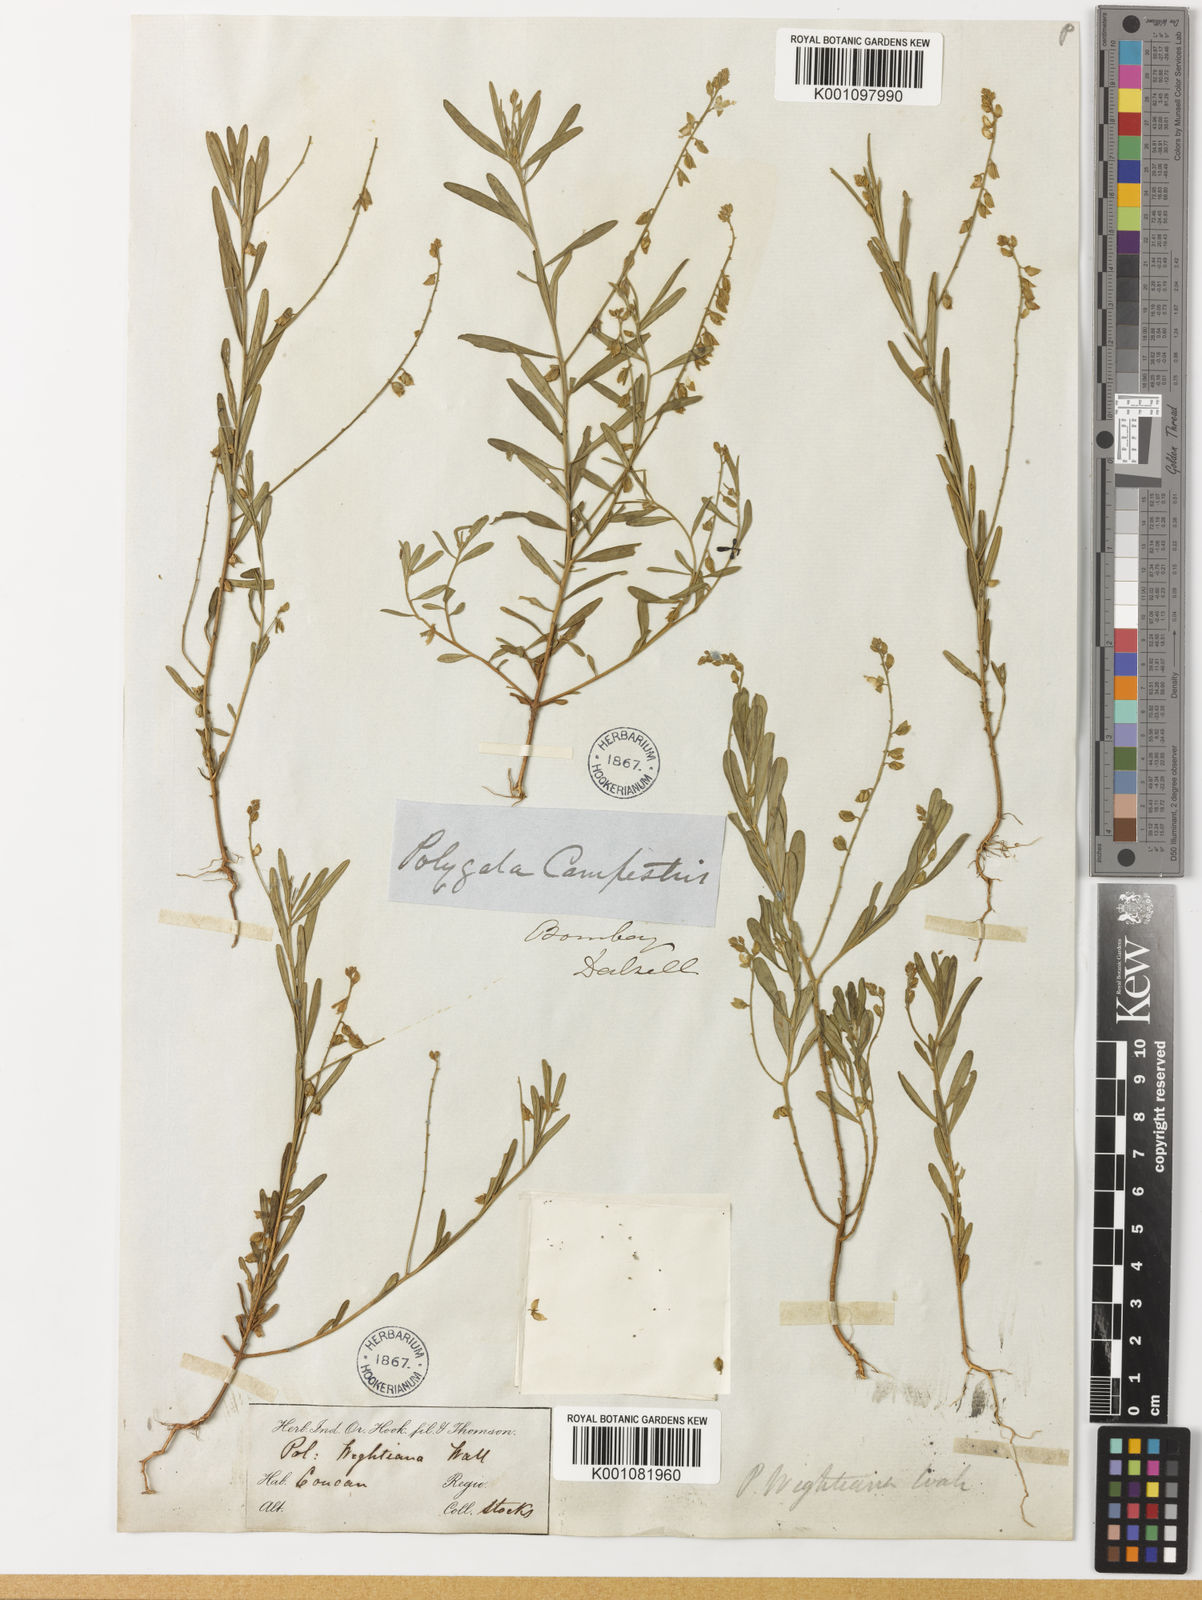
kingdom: Plantae
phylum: Tracheophyta
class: Magnoliopsida
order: Fabales
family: Polygalaceae
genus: Polygala
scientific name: Polygala wightiana
